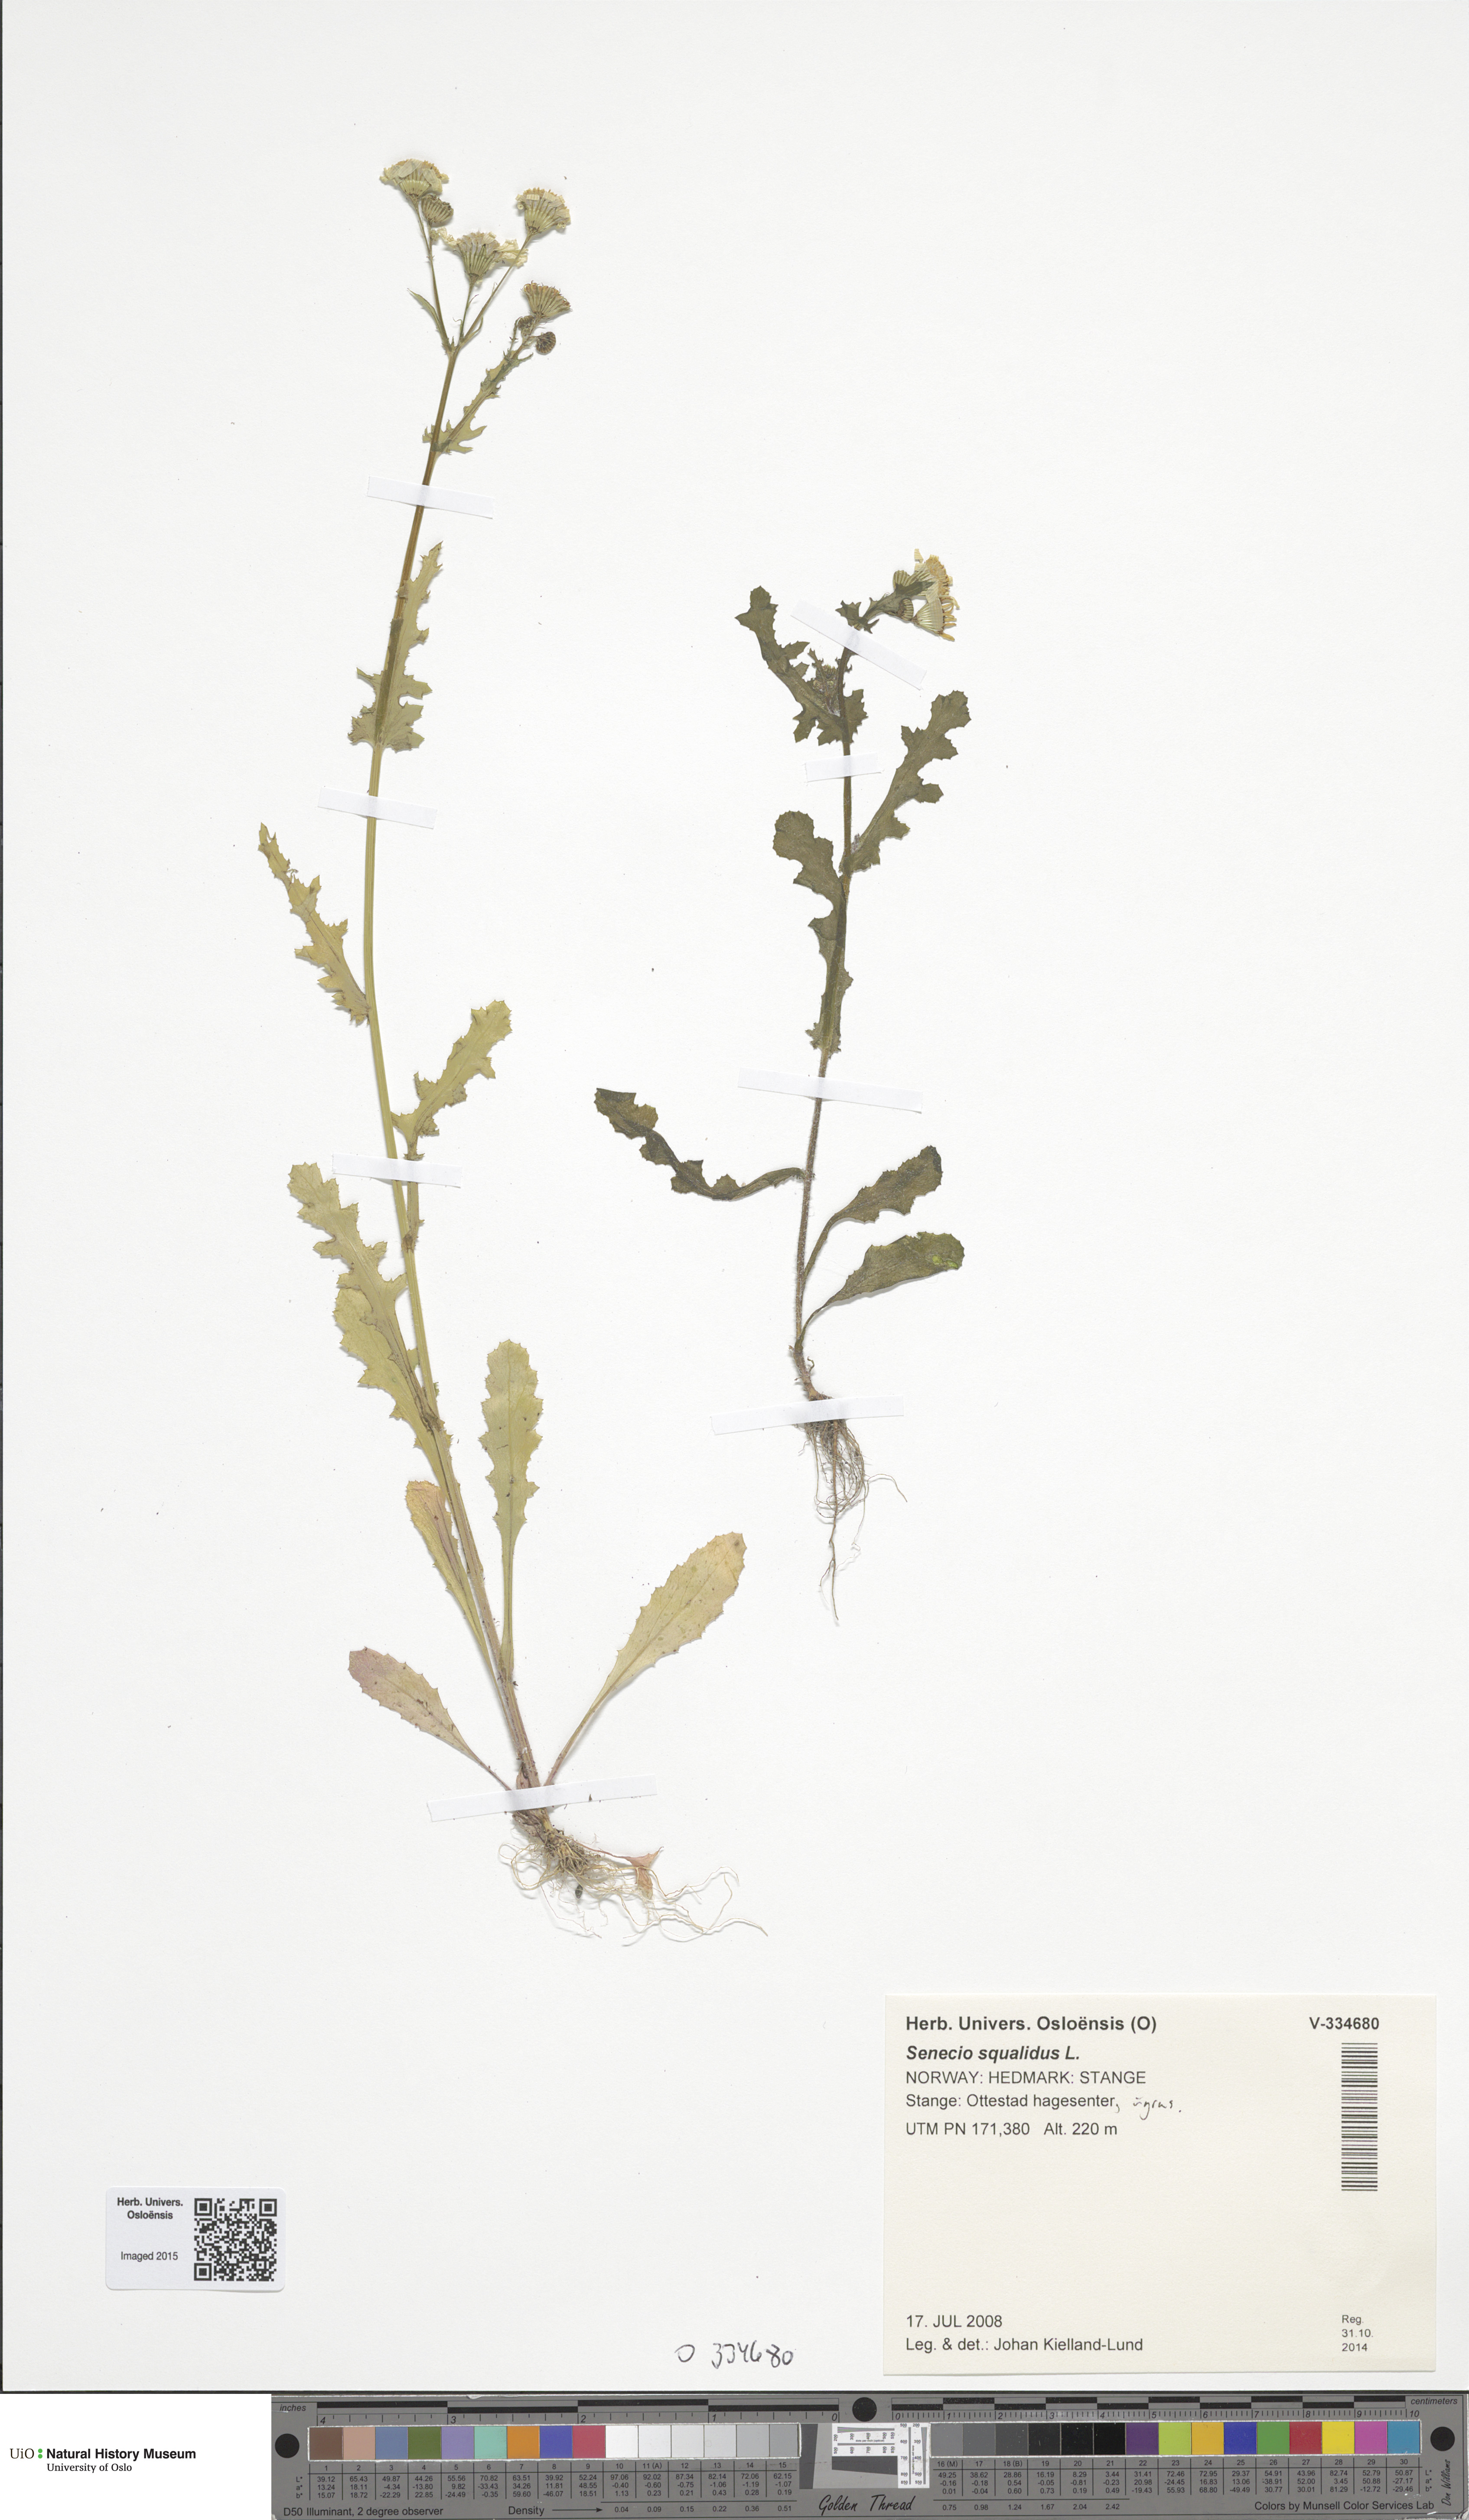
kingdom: Plantae
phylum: Tracheophyta
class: Magnoliopsida
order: Asterales
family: Asteraceae
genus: Senecio
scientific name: Senecio vernalis
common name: Eastern groundsel
